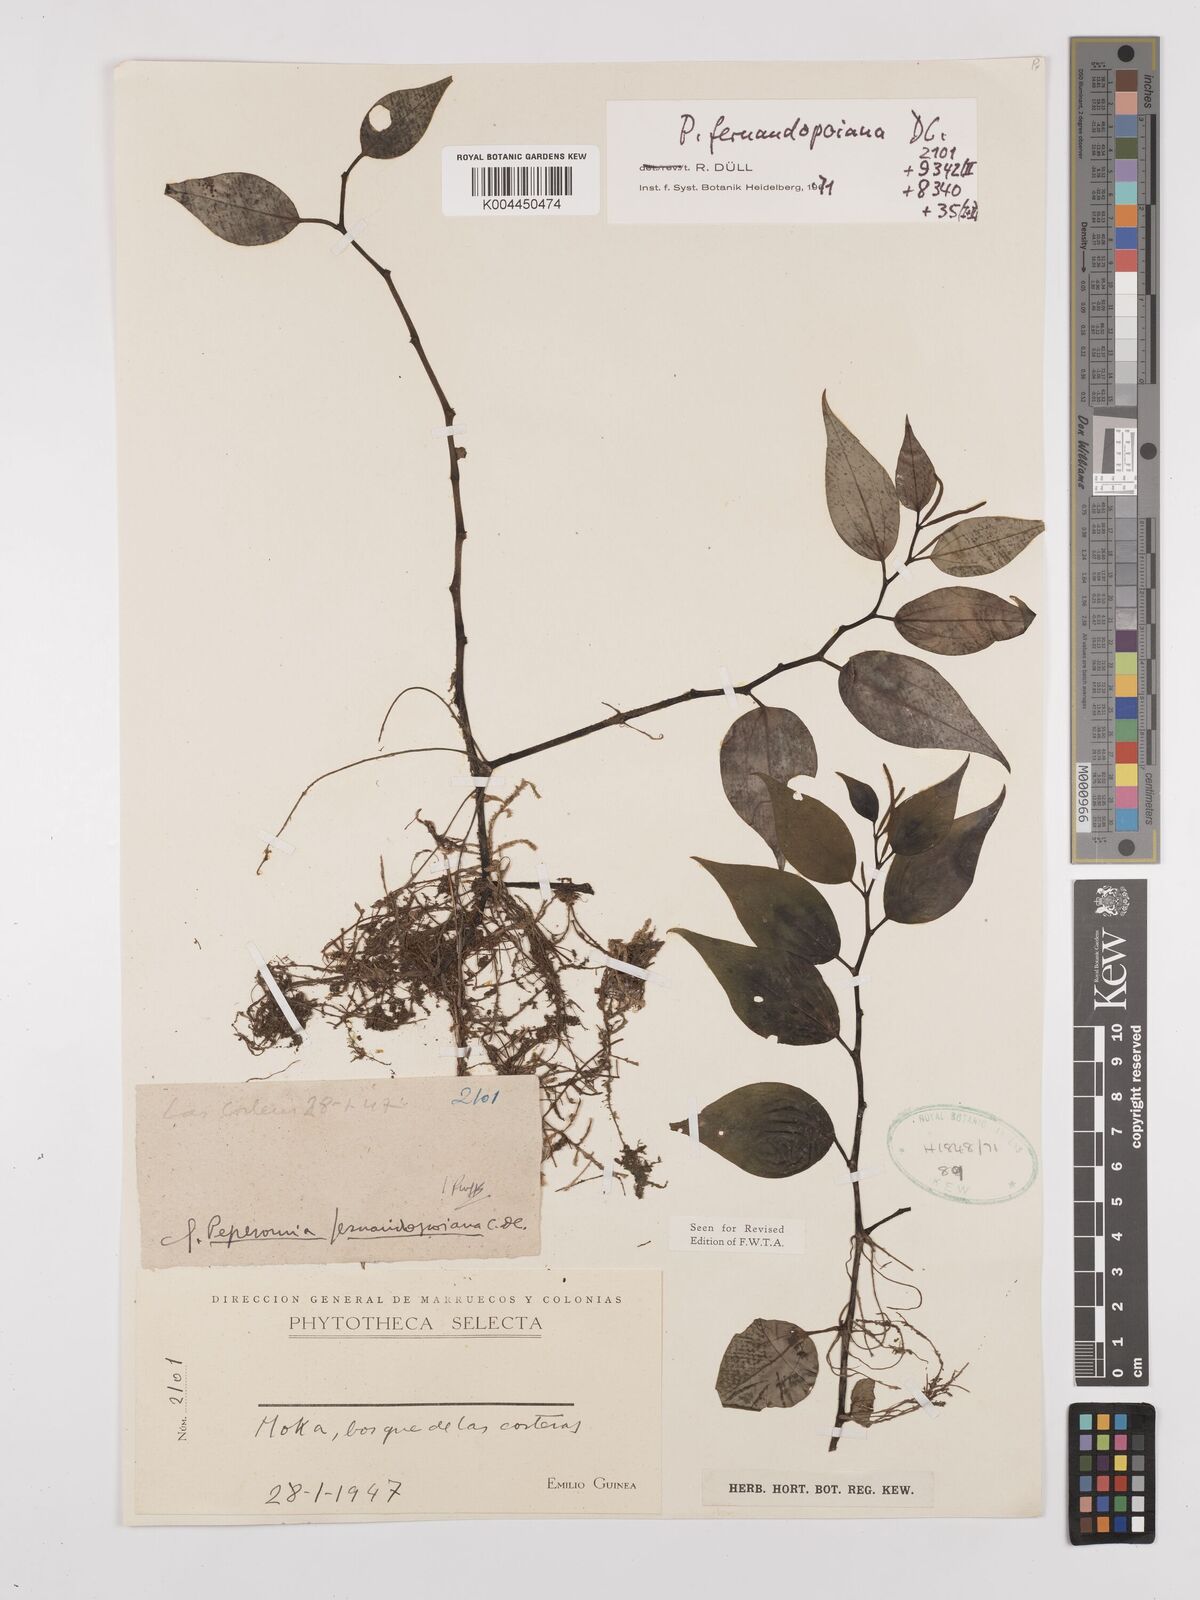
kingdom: Plantae
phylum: Tracheophyta
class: Magnoliopsida
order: Piperales
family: Piperaceae
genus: Peperomia
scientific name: Peperomia fernandopoiana
